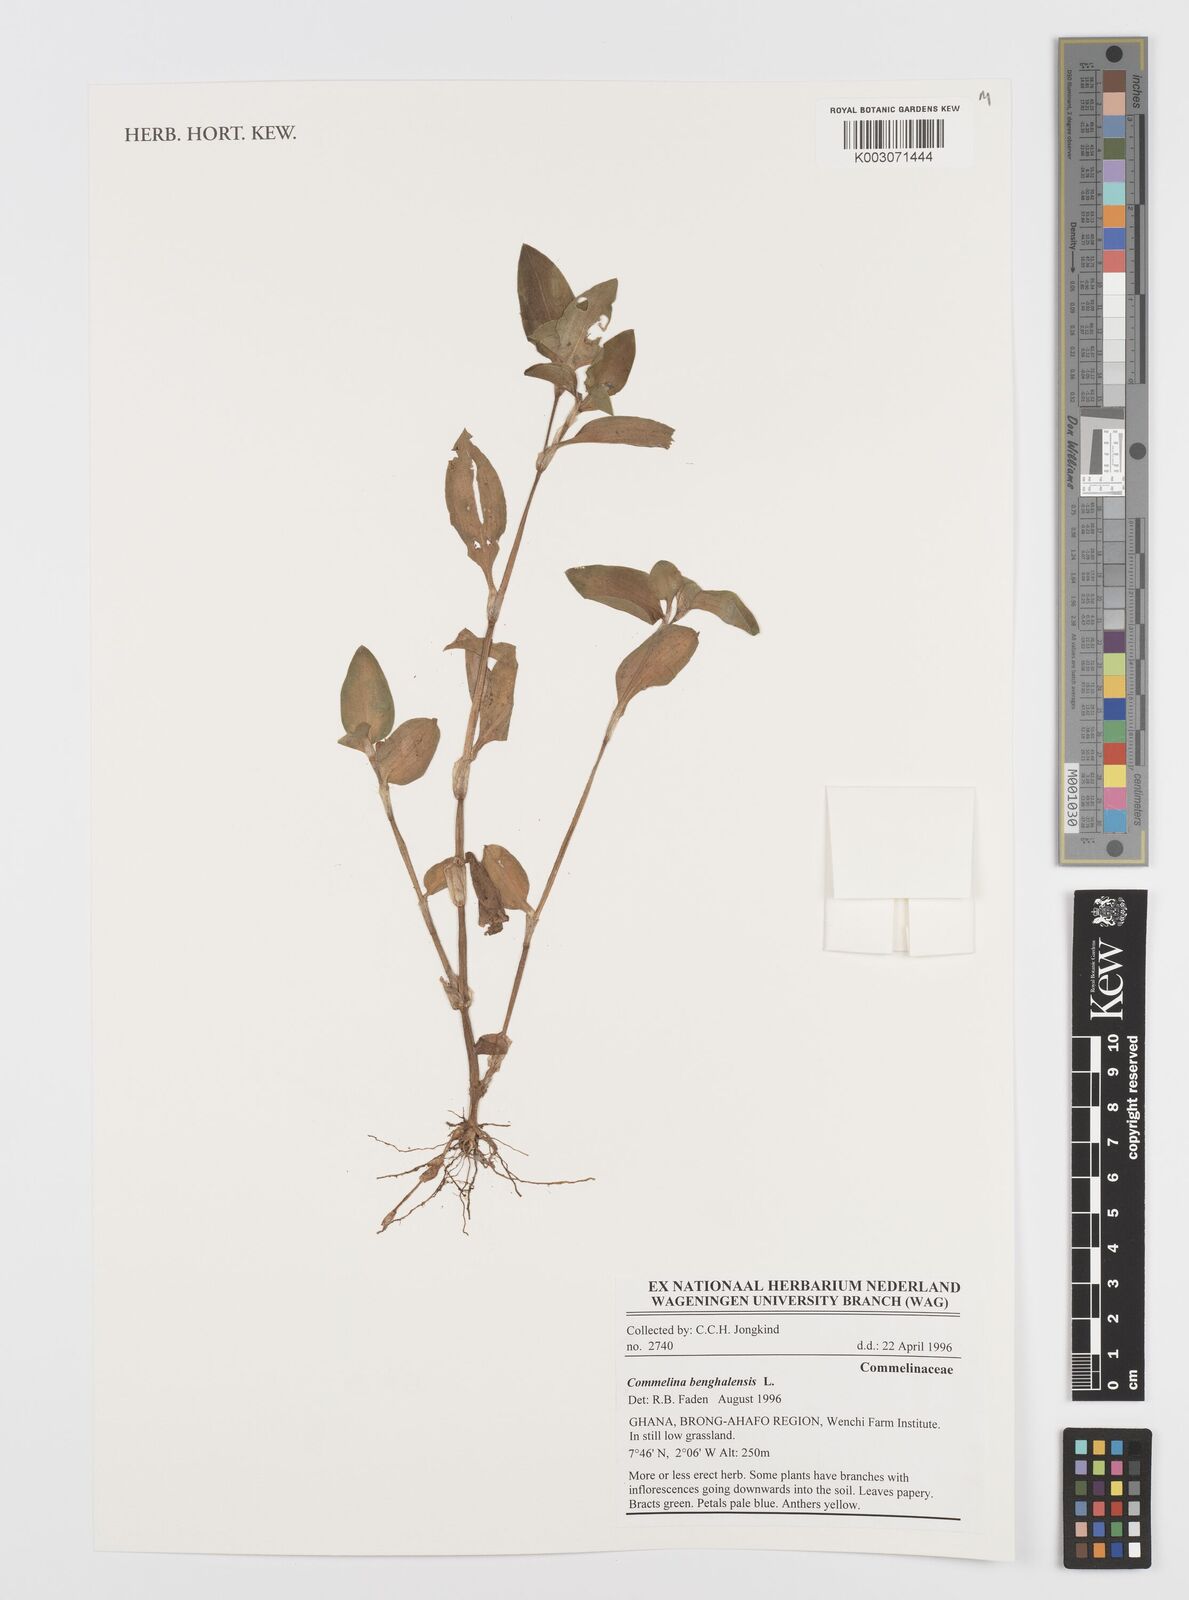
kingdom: Plantae
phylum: Tracheophyta
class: Liliopsida
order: Commelinales
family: Commelinaceae
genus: Commelina
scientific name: Commelina benghalensis
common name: Jio
